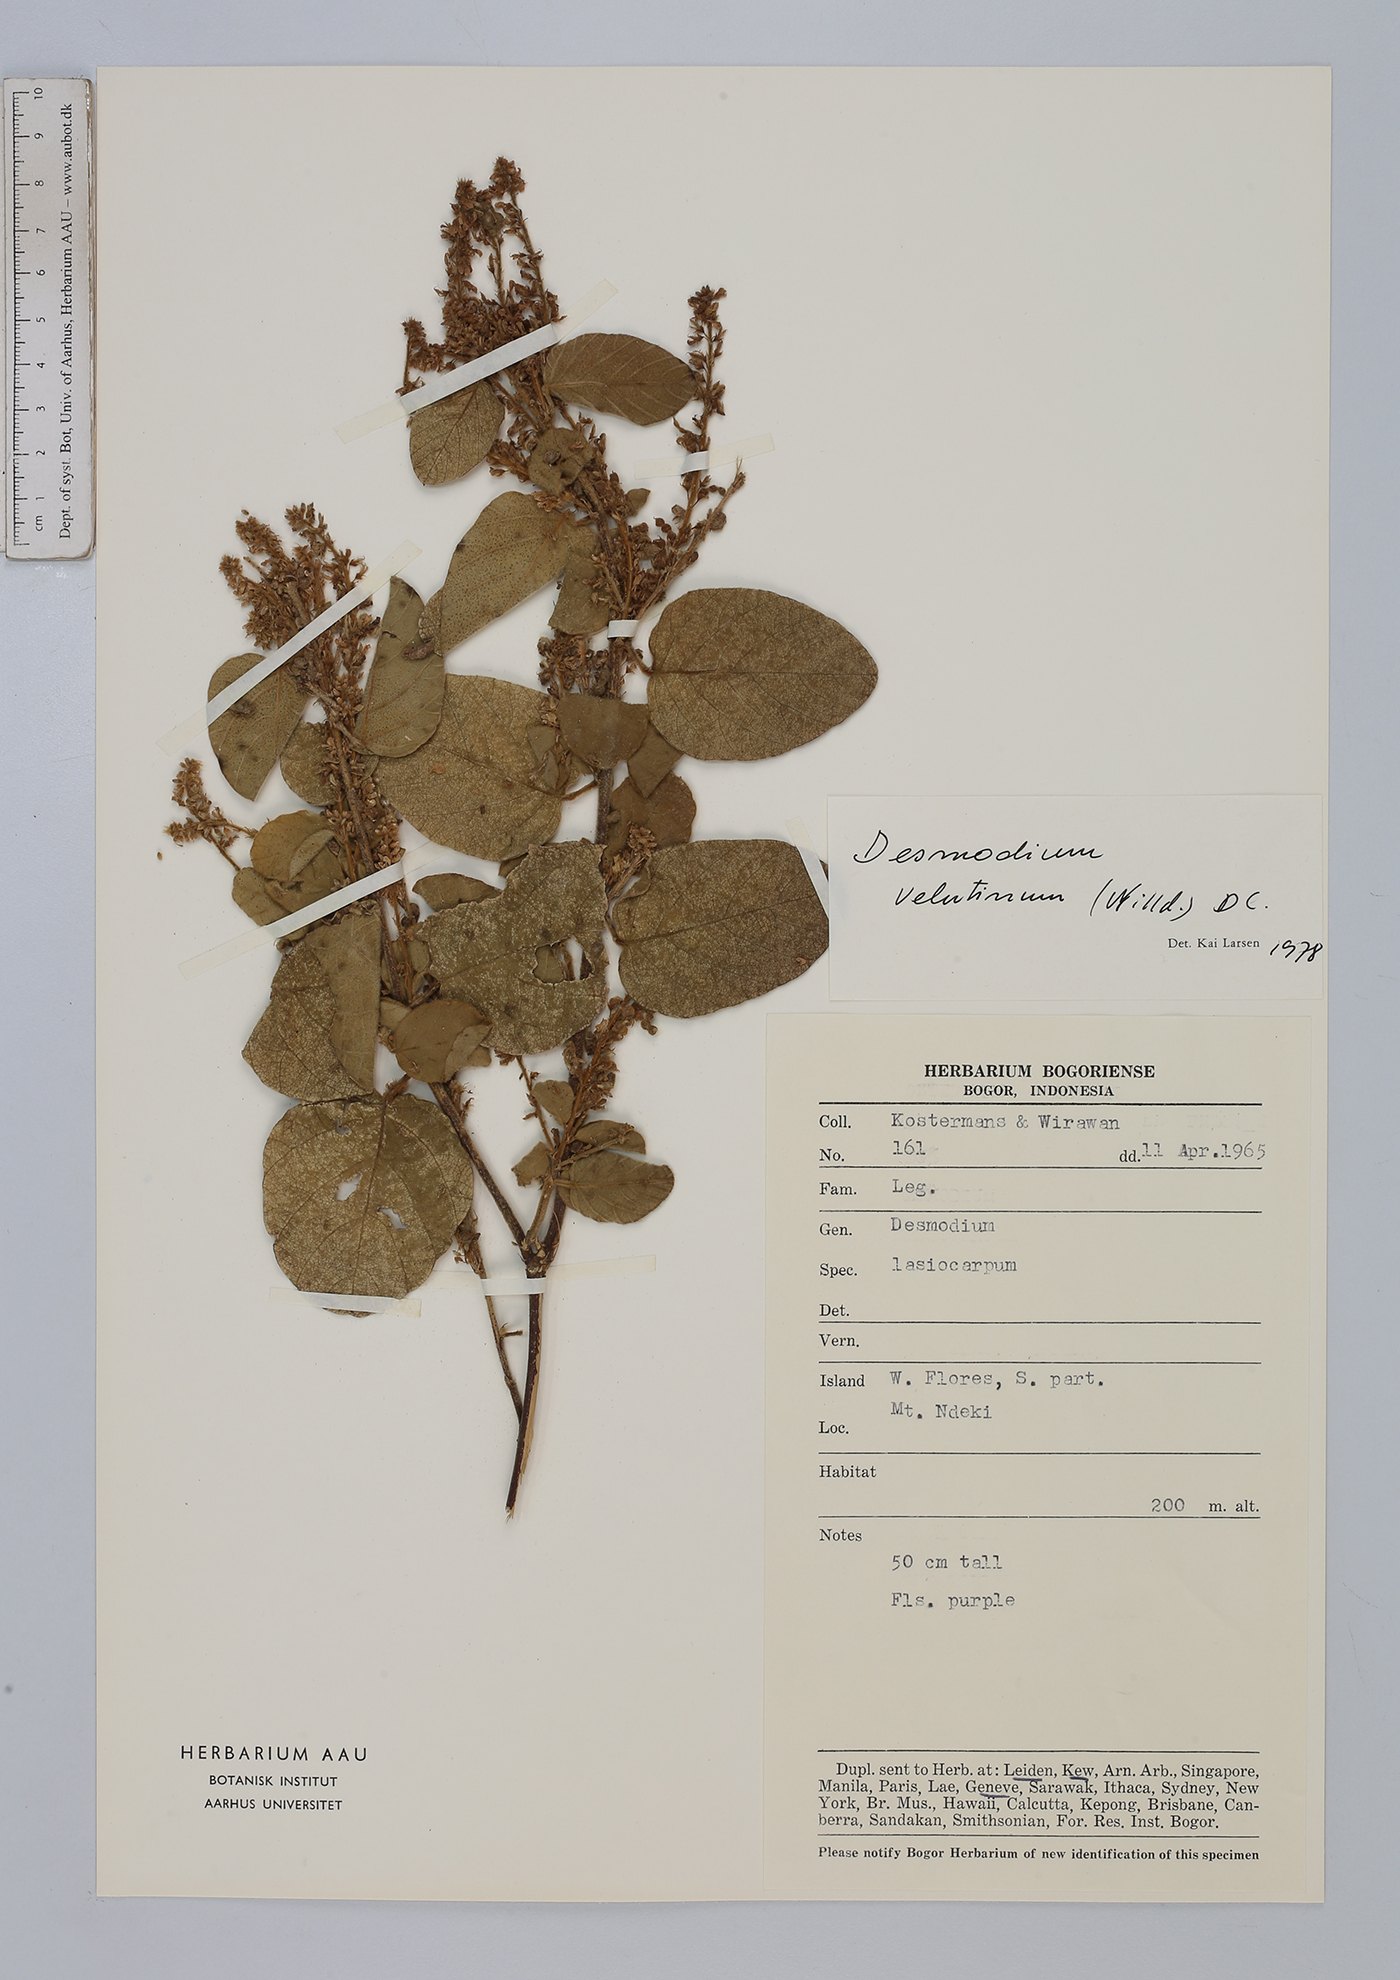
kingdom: Plantae
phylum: Tracheophyta
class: Magnoliopsida
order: Fabales
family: Fabaceae
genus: Polhillides
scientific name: Polhillides velutina
